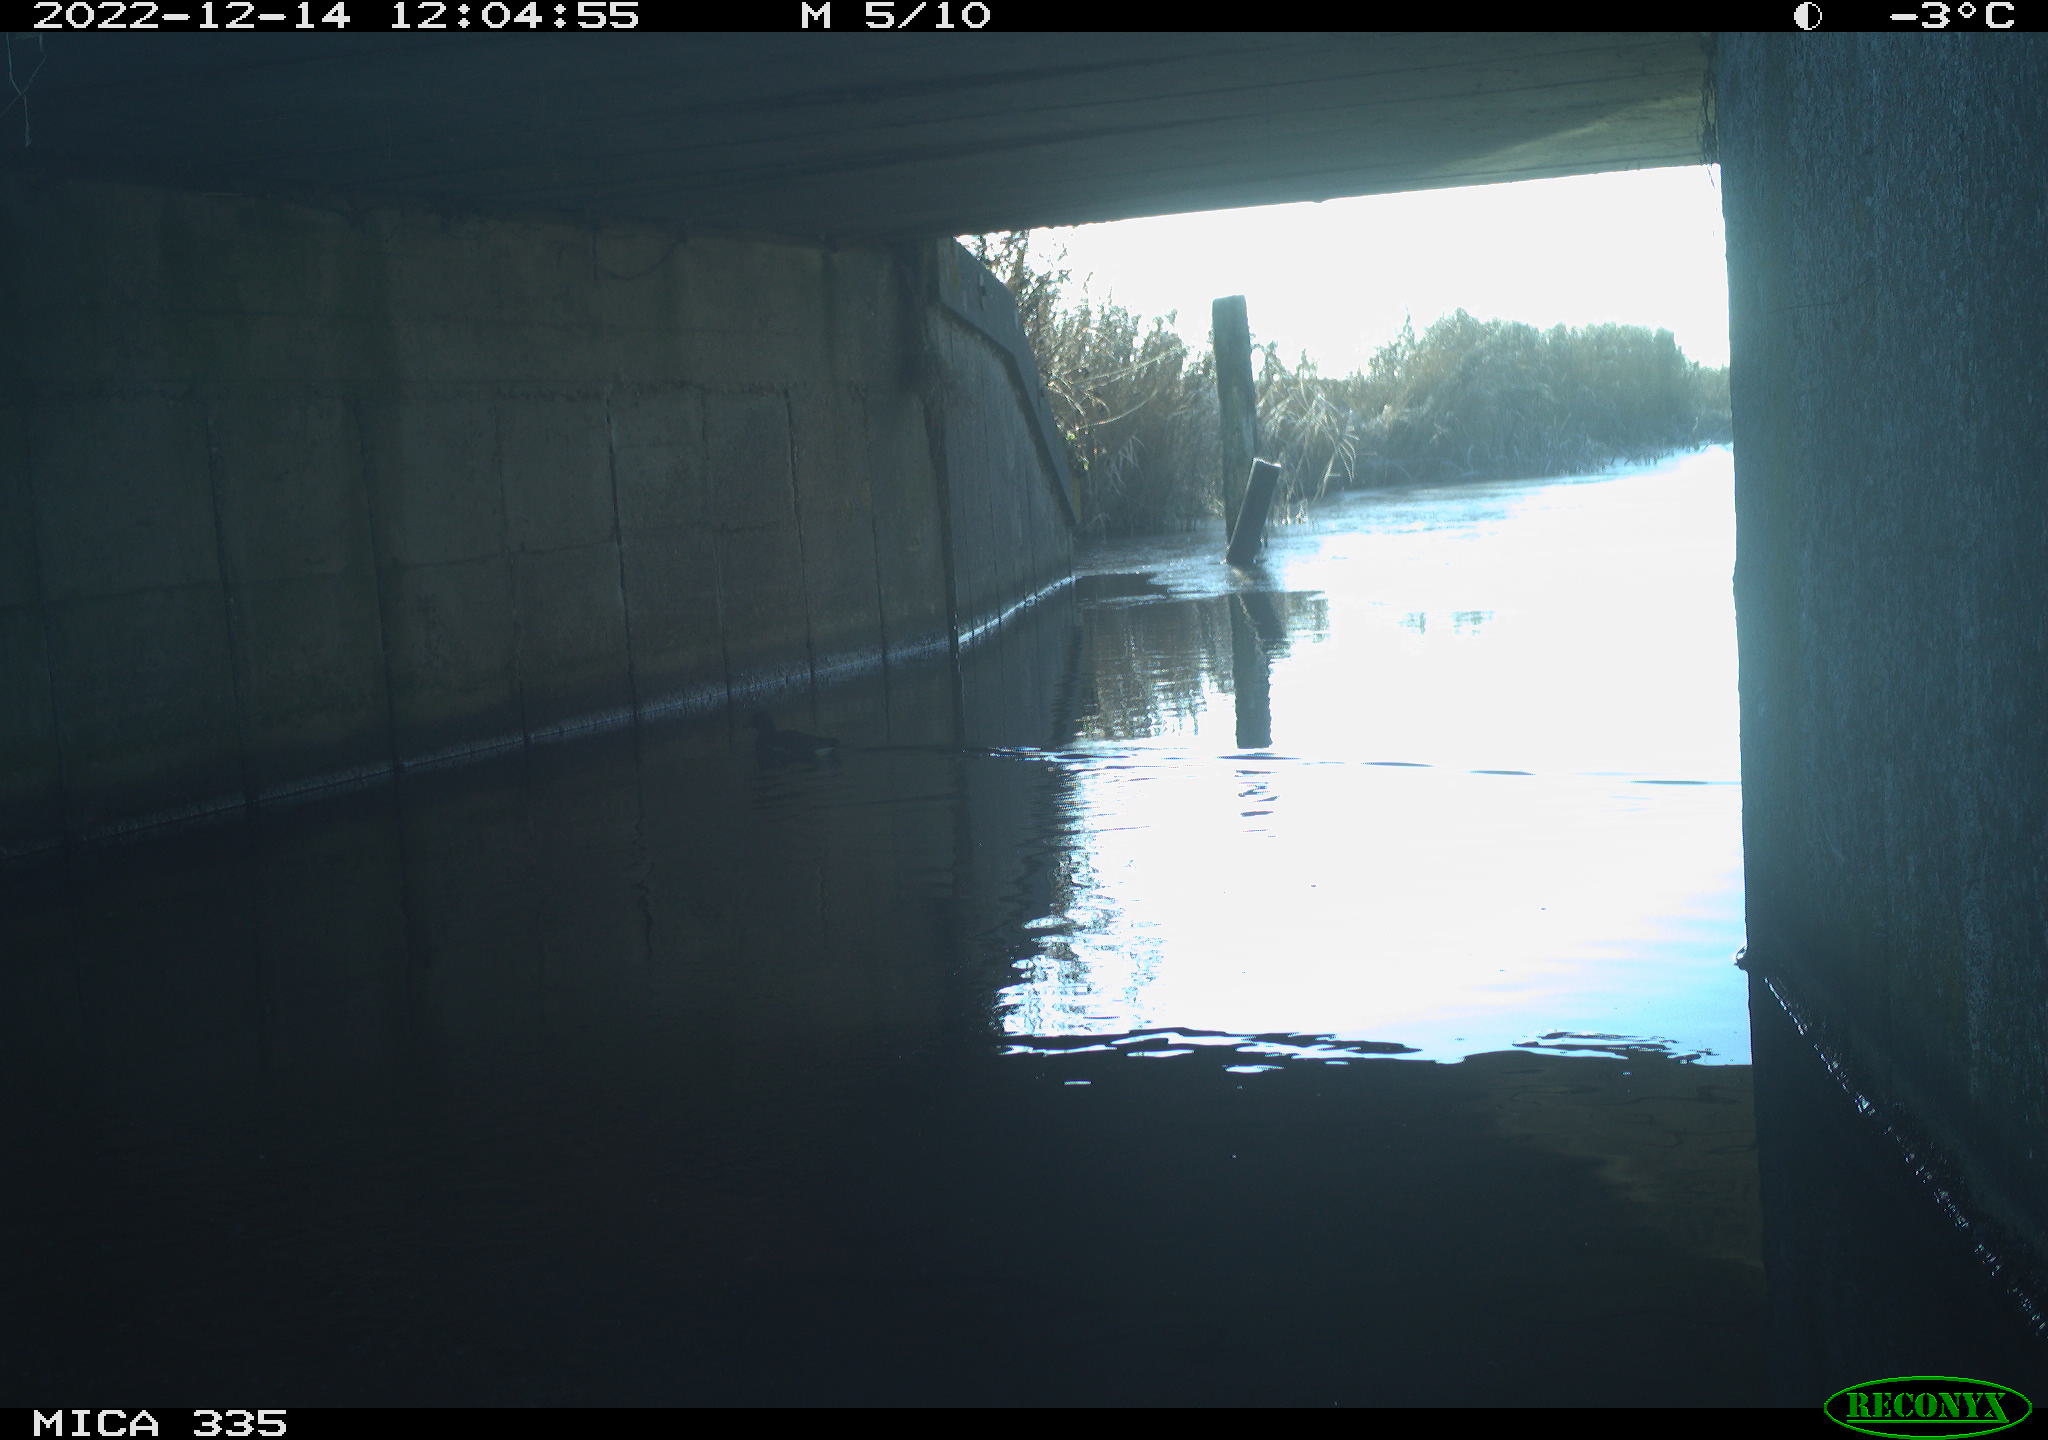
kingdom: Animalia
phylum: Chordata
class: Aves
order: Anseriformes
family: Anatidae
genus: Anas
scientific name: Anas
